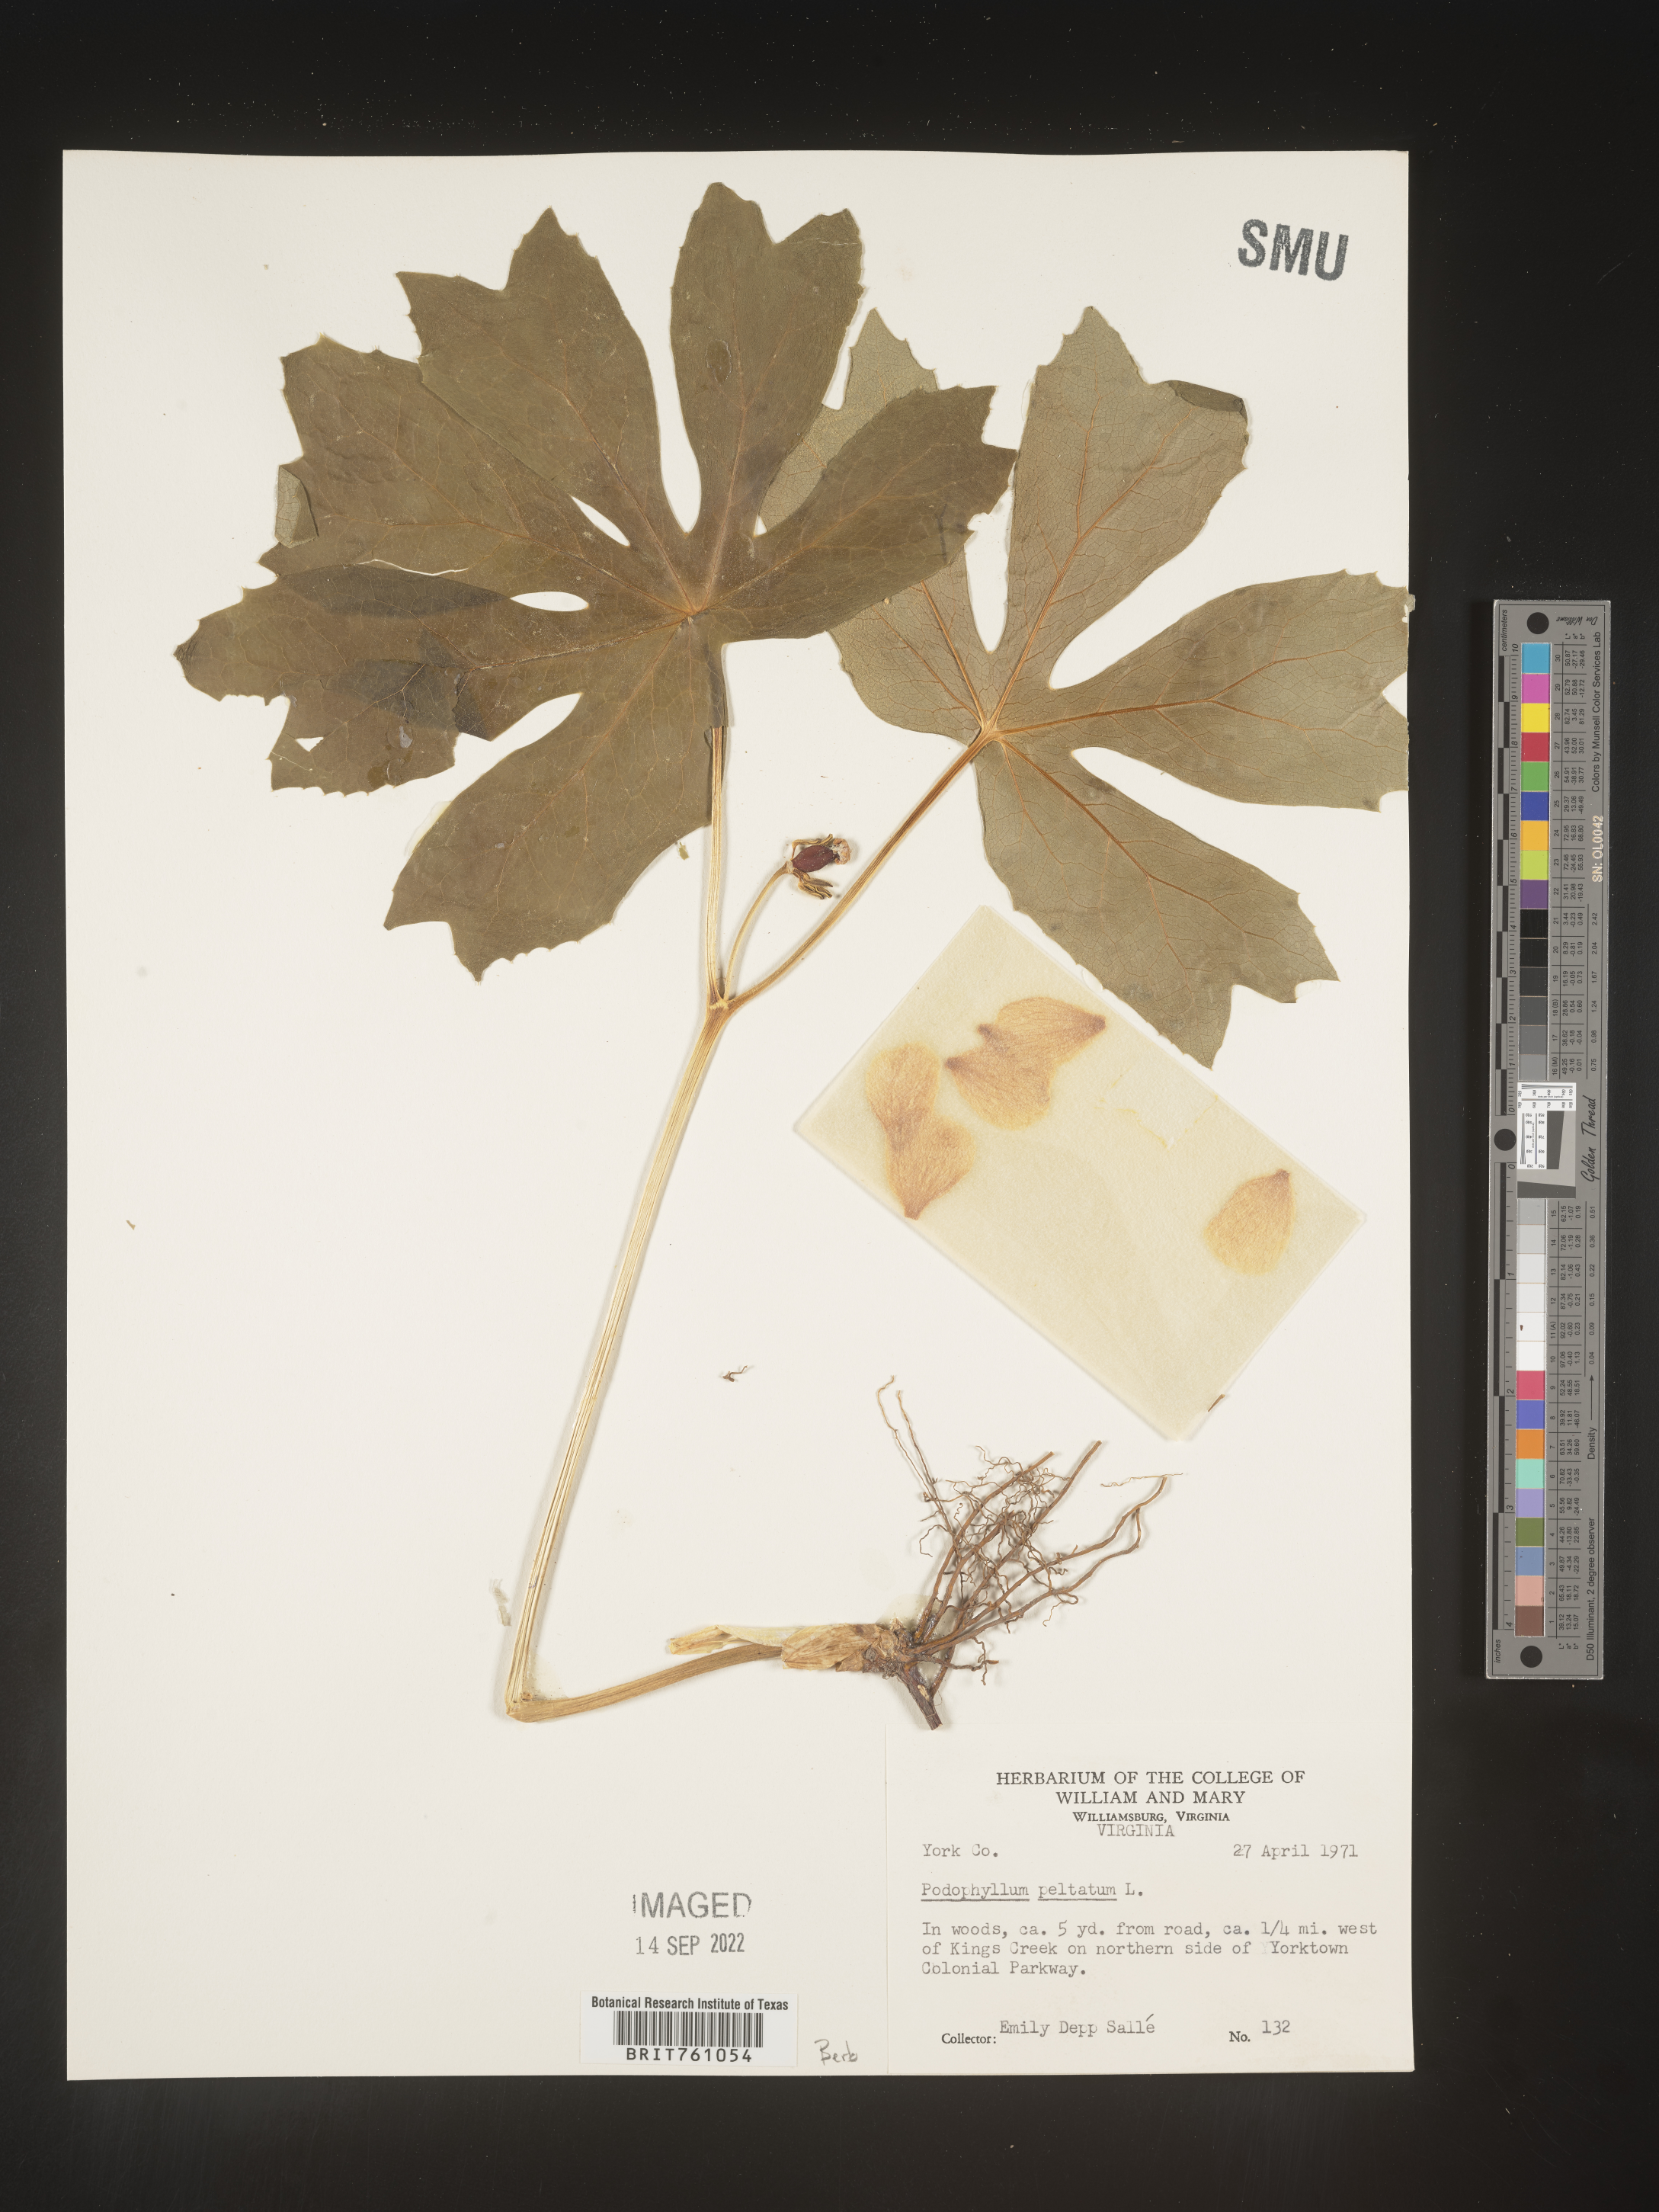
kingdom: Plantae
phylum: Tracheophyta
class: Magnoliopsida
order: Ranunculales
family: Berberidaceae
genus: Podophyllum
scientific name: Podophyllum peltatum
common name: Wild mandrake
